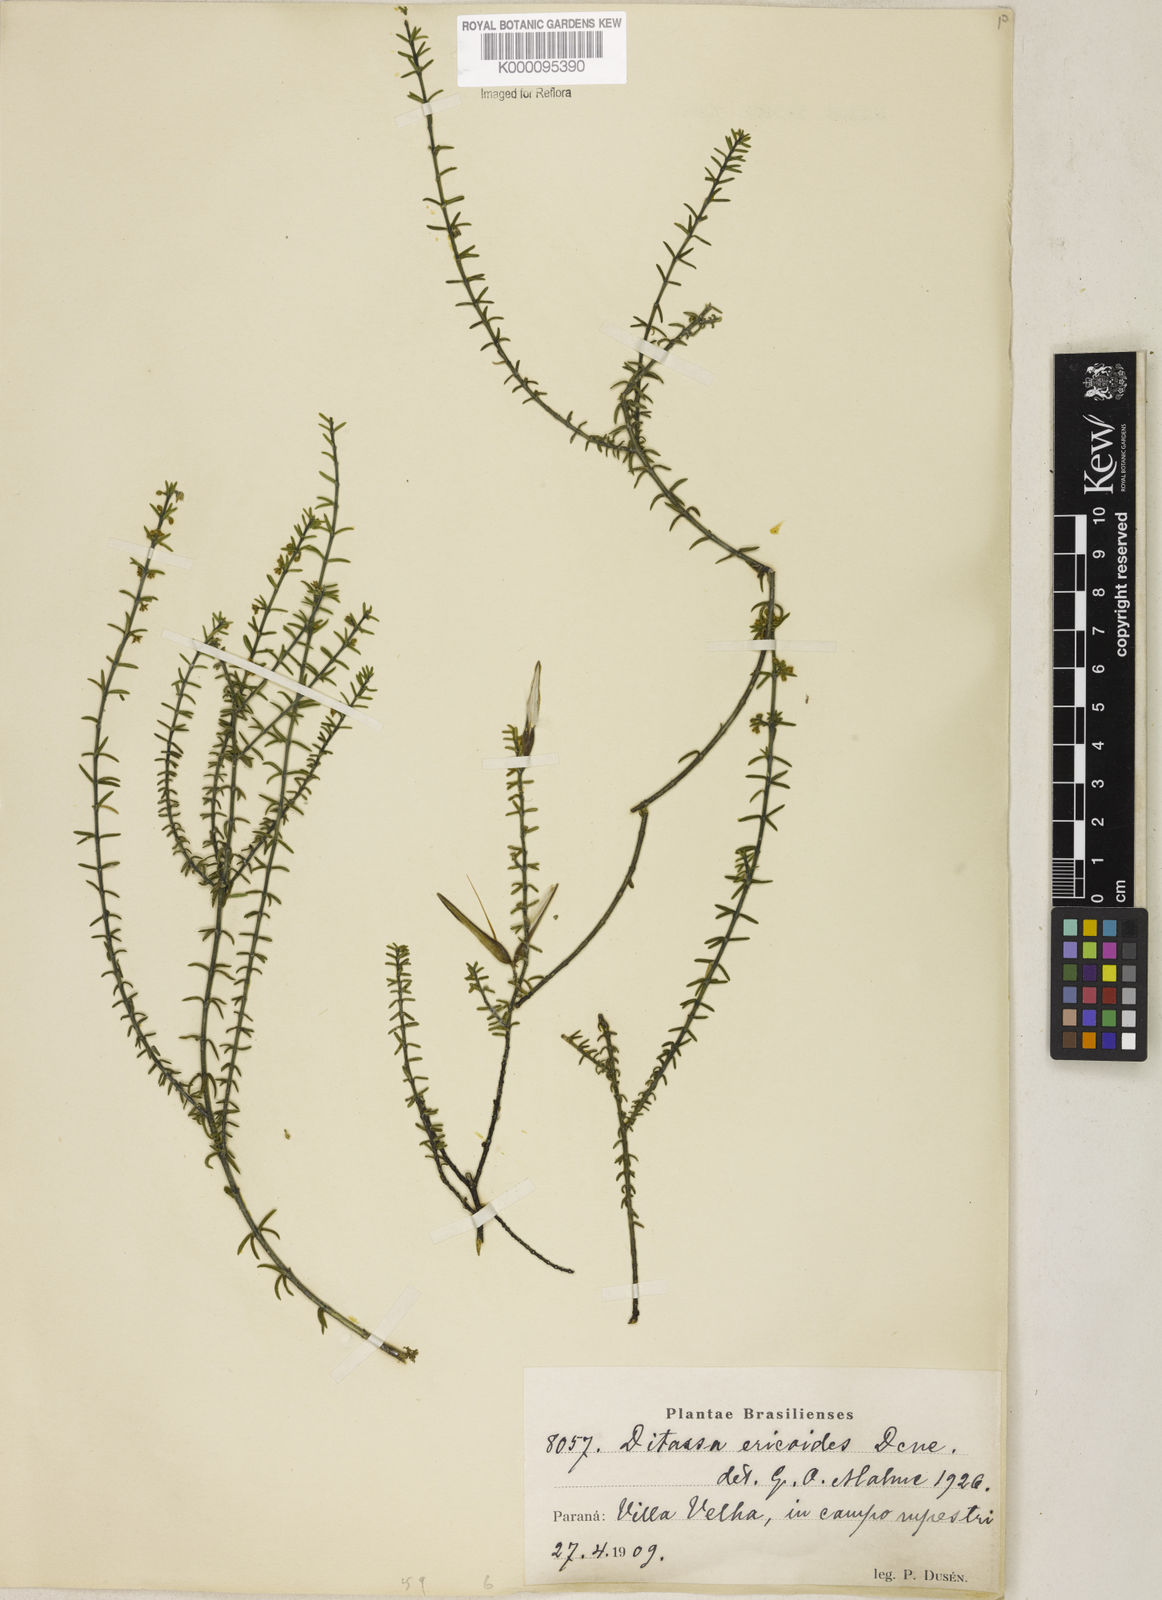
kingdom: Plantae
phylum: Tracheophyta
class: Magnoliopsida
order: Gentianales
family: Apocynaceae
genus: Minaria
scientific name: Minaria acerosa
